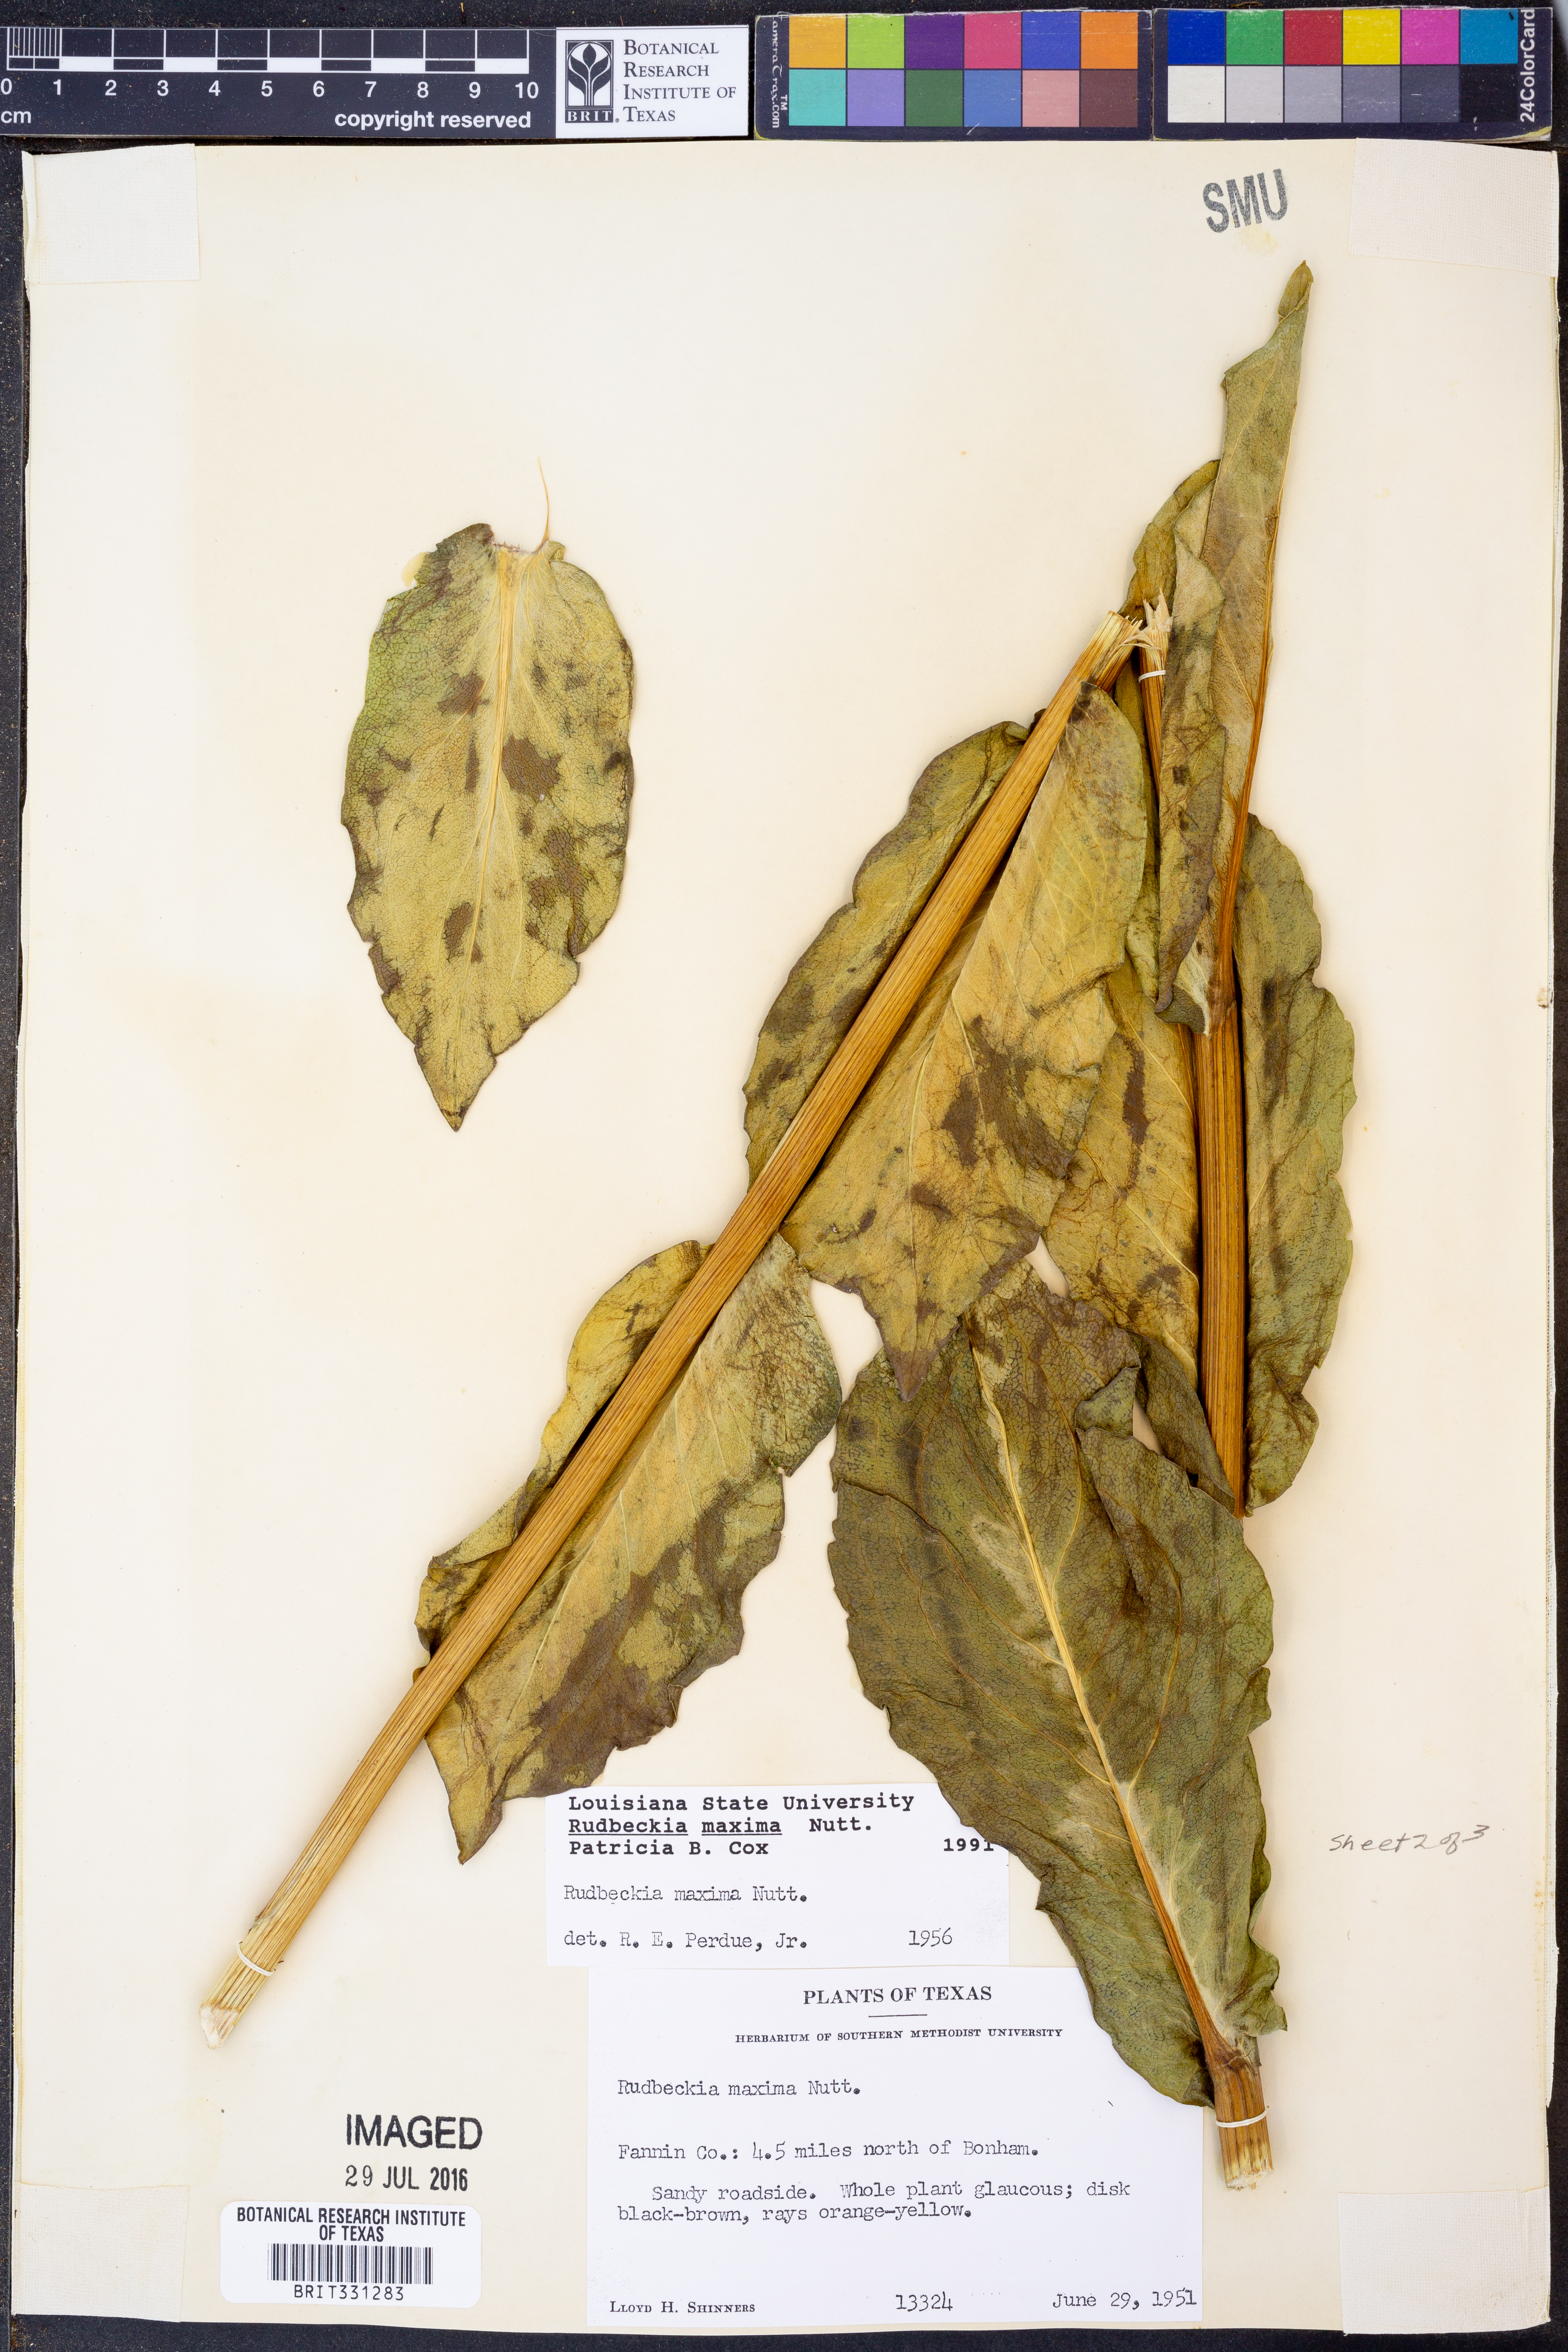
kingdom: Plantae
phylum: Tracheophyta
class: Magnoliopsida
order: Asterales
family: Asteraceae
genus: Rudbeckia
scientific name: Rudbeckia maxima
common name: Cabbage coneflower
